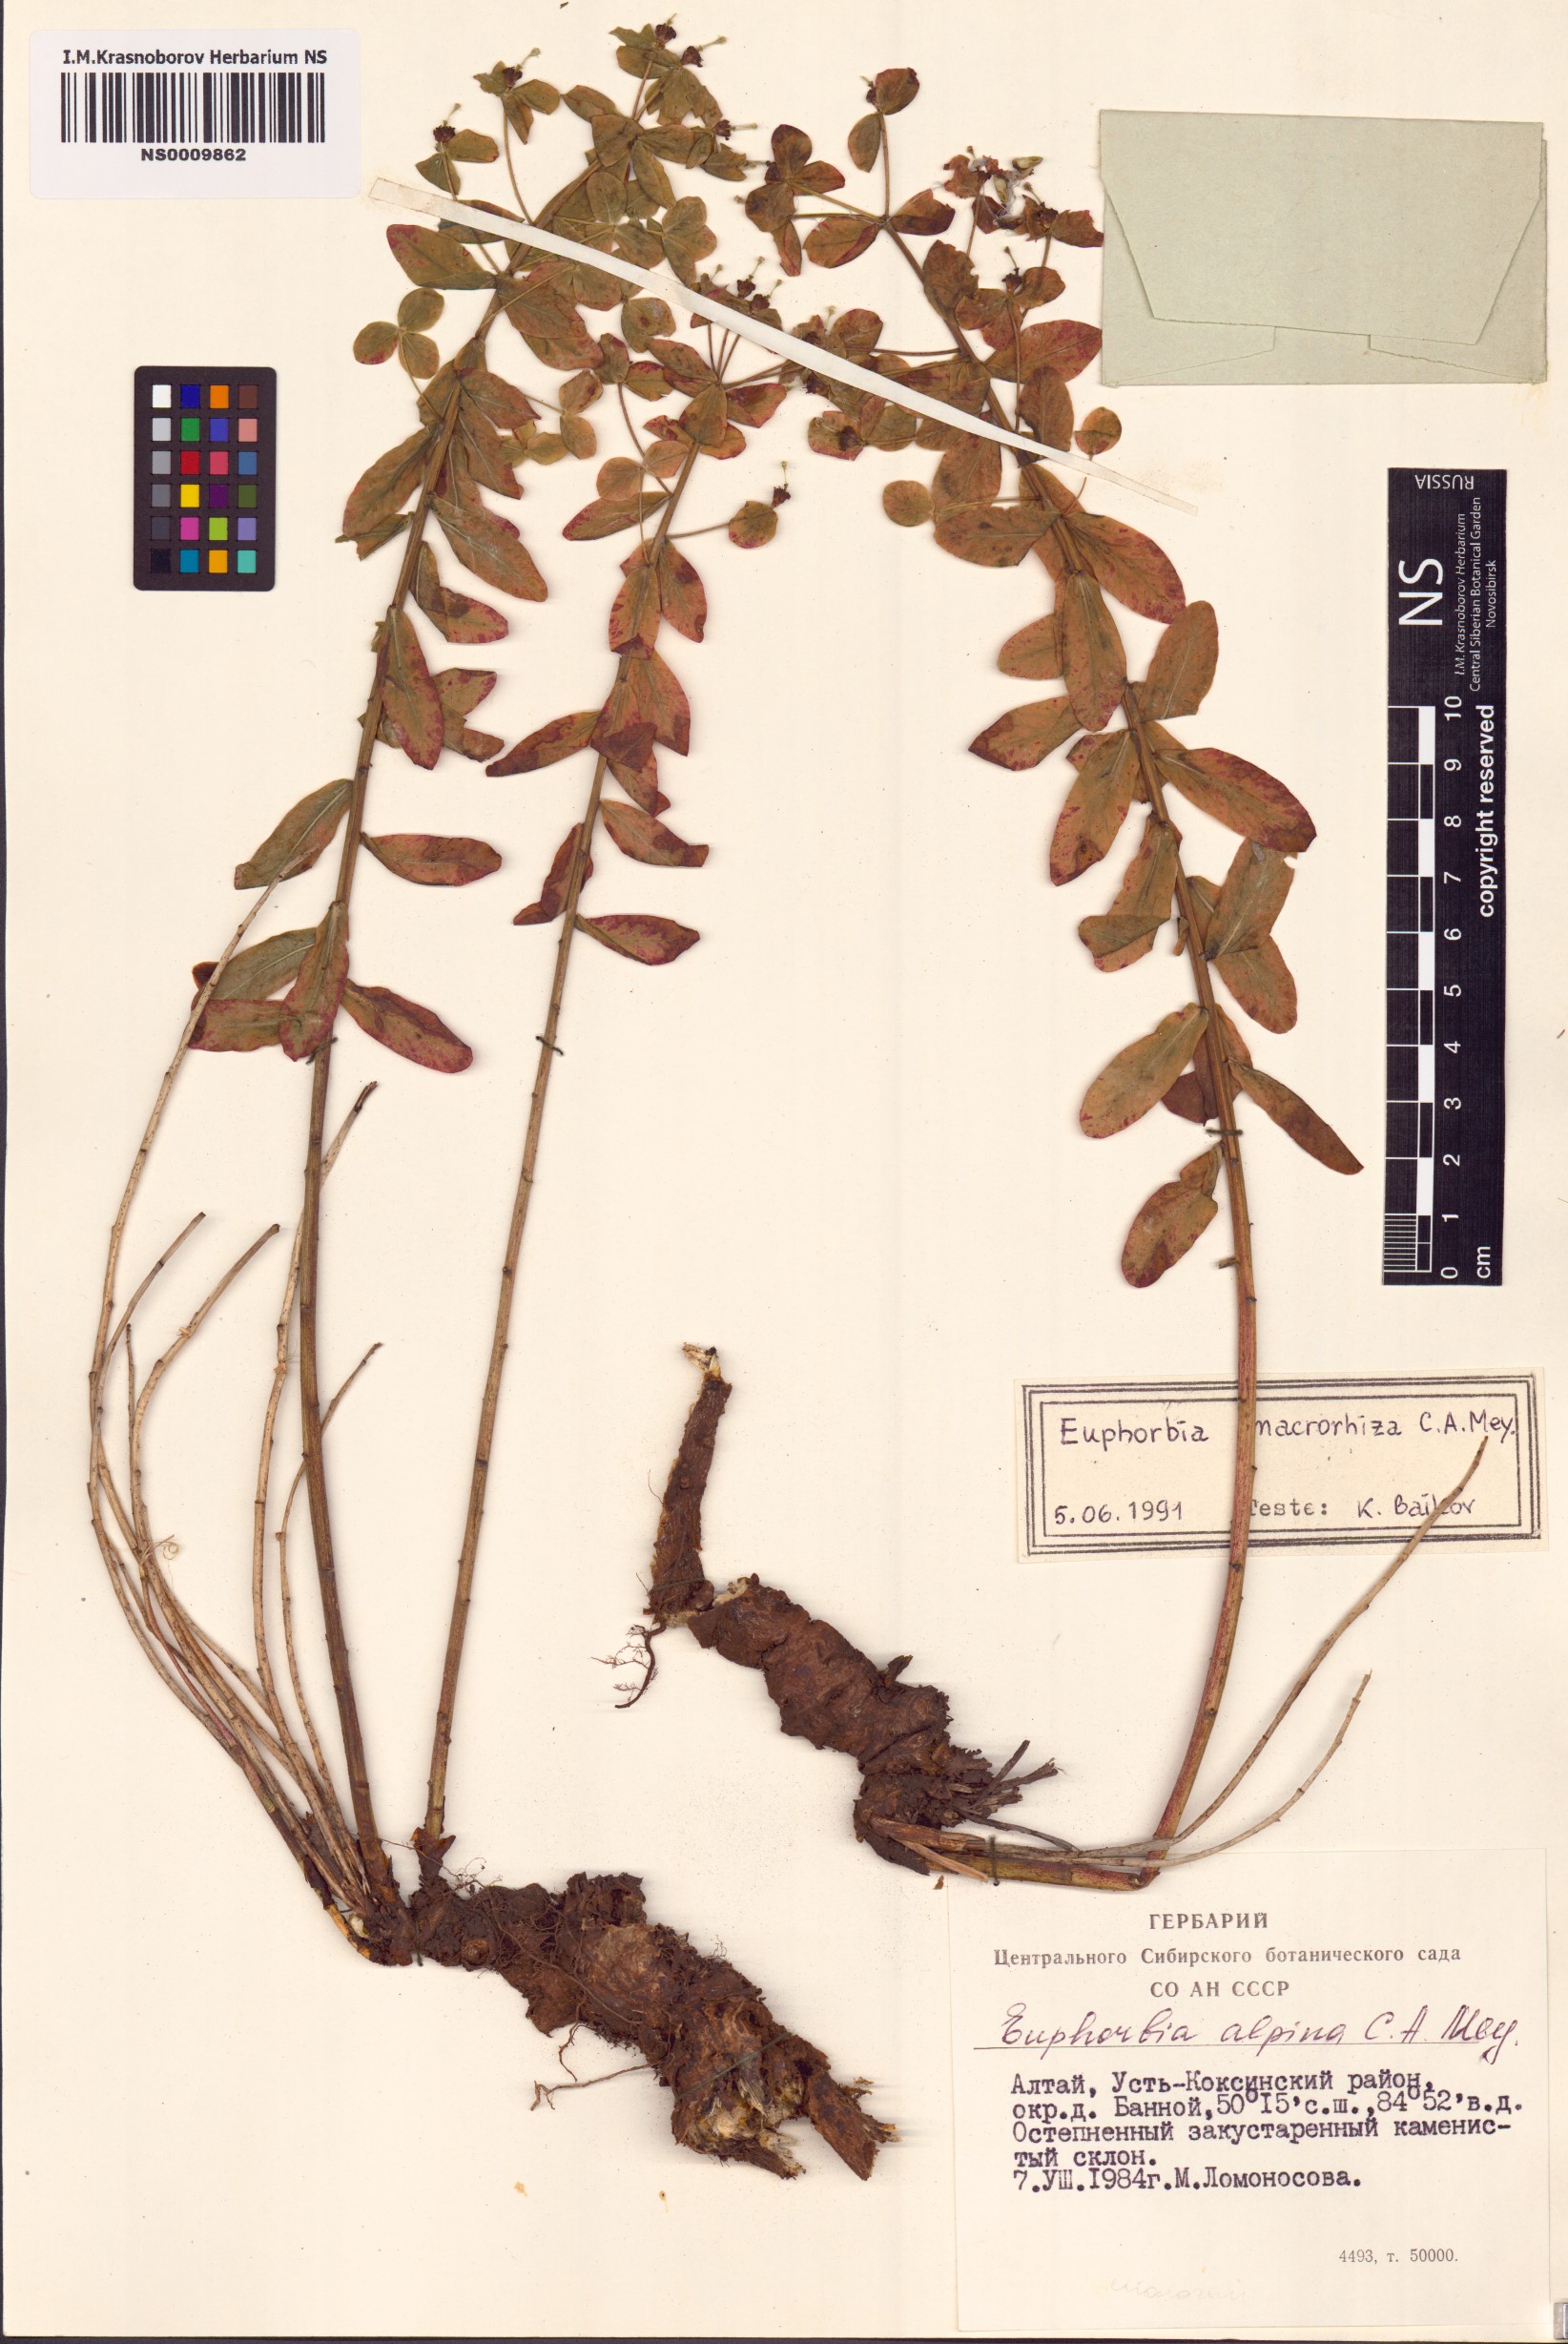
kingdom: Plantae
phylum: Tracheophyta
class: Magnoliopsida
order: Malpighiales
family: Euphorbiaceae
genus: Euphorbia
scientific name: Euphorbia macrorhiza
